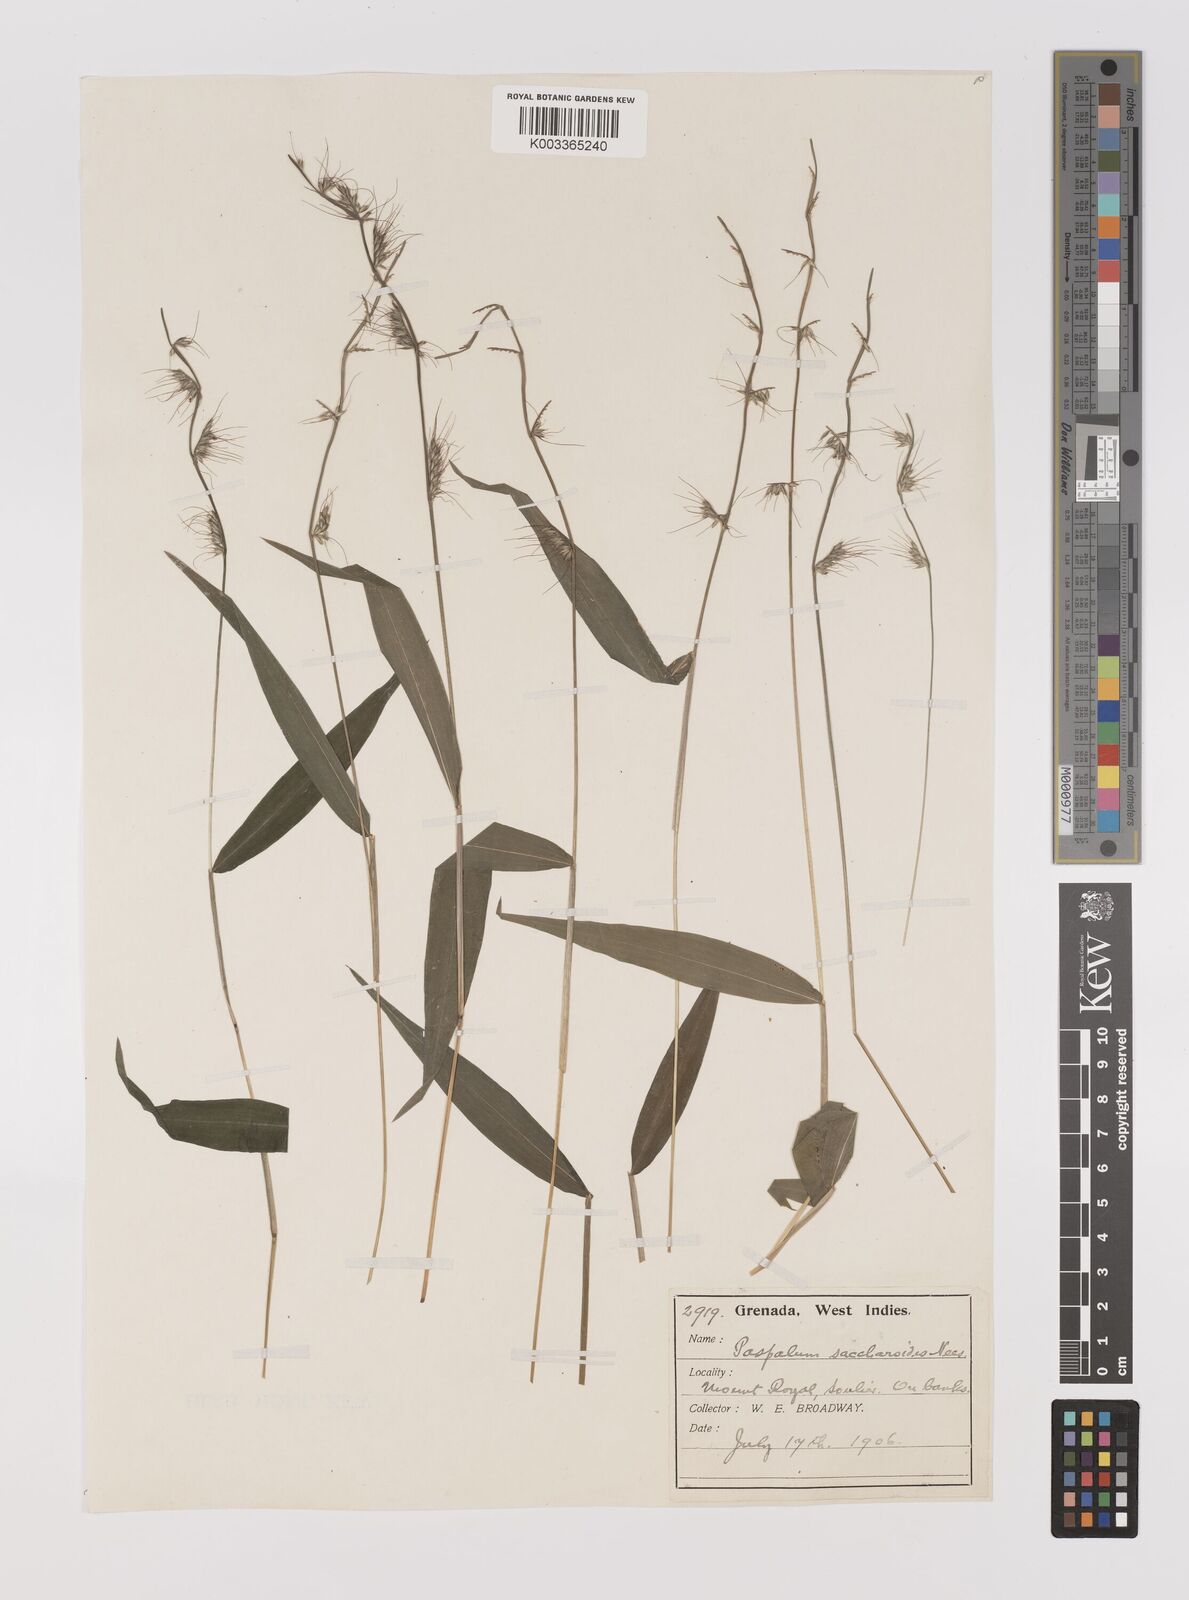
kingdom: Plantae
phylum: Tracheophyta
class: Liliopsida
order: Poales
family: Poaceae
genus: Oplismenus
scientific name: Oplismenus hirtellus
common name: Basketgrass
